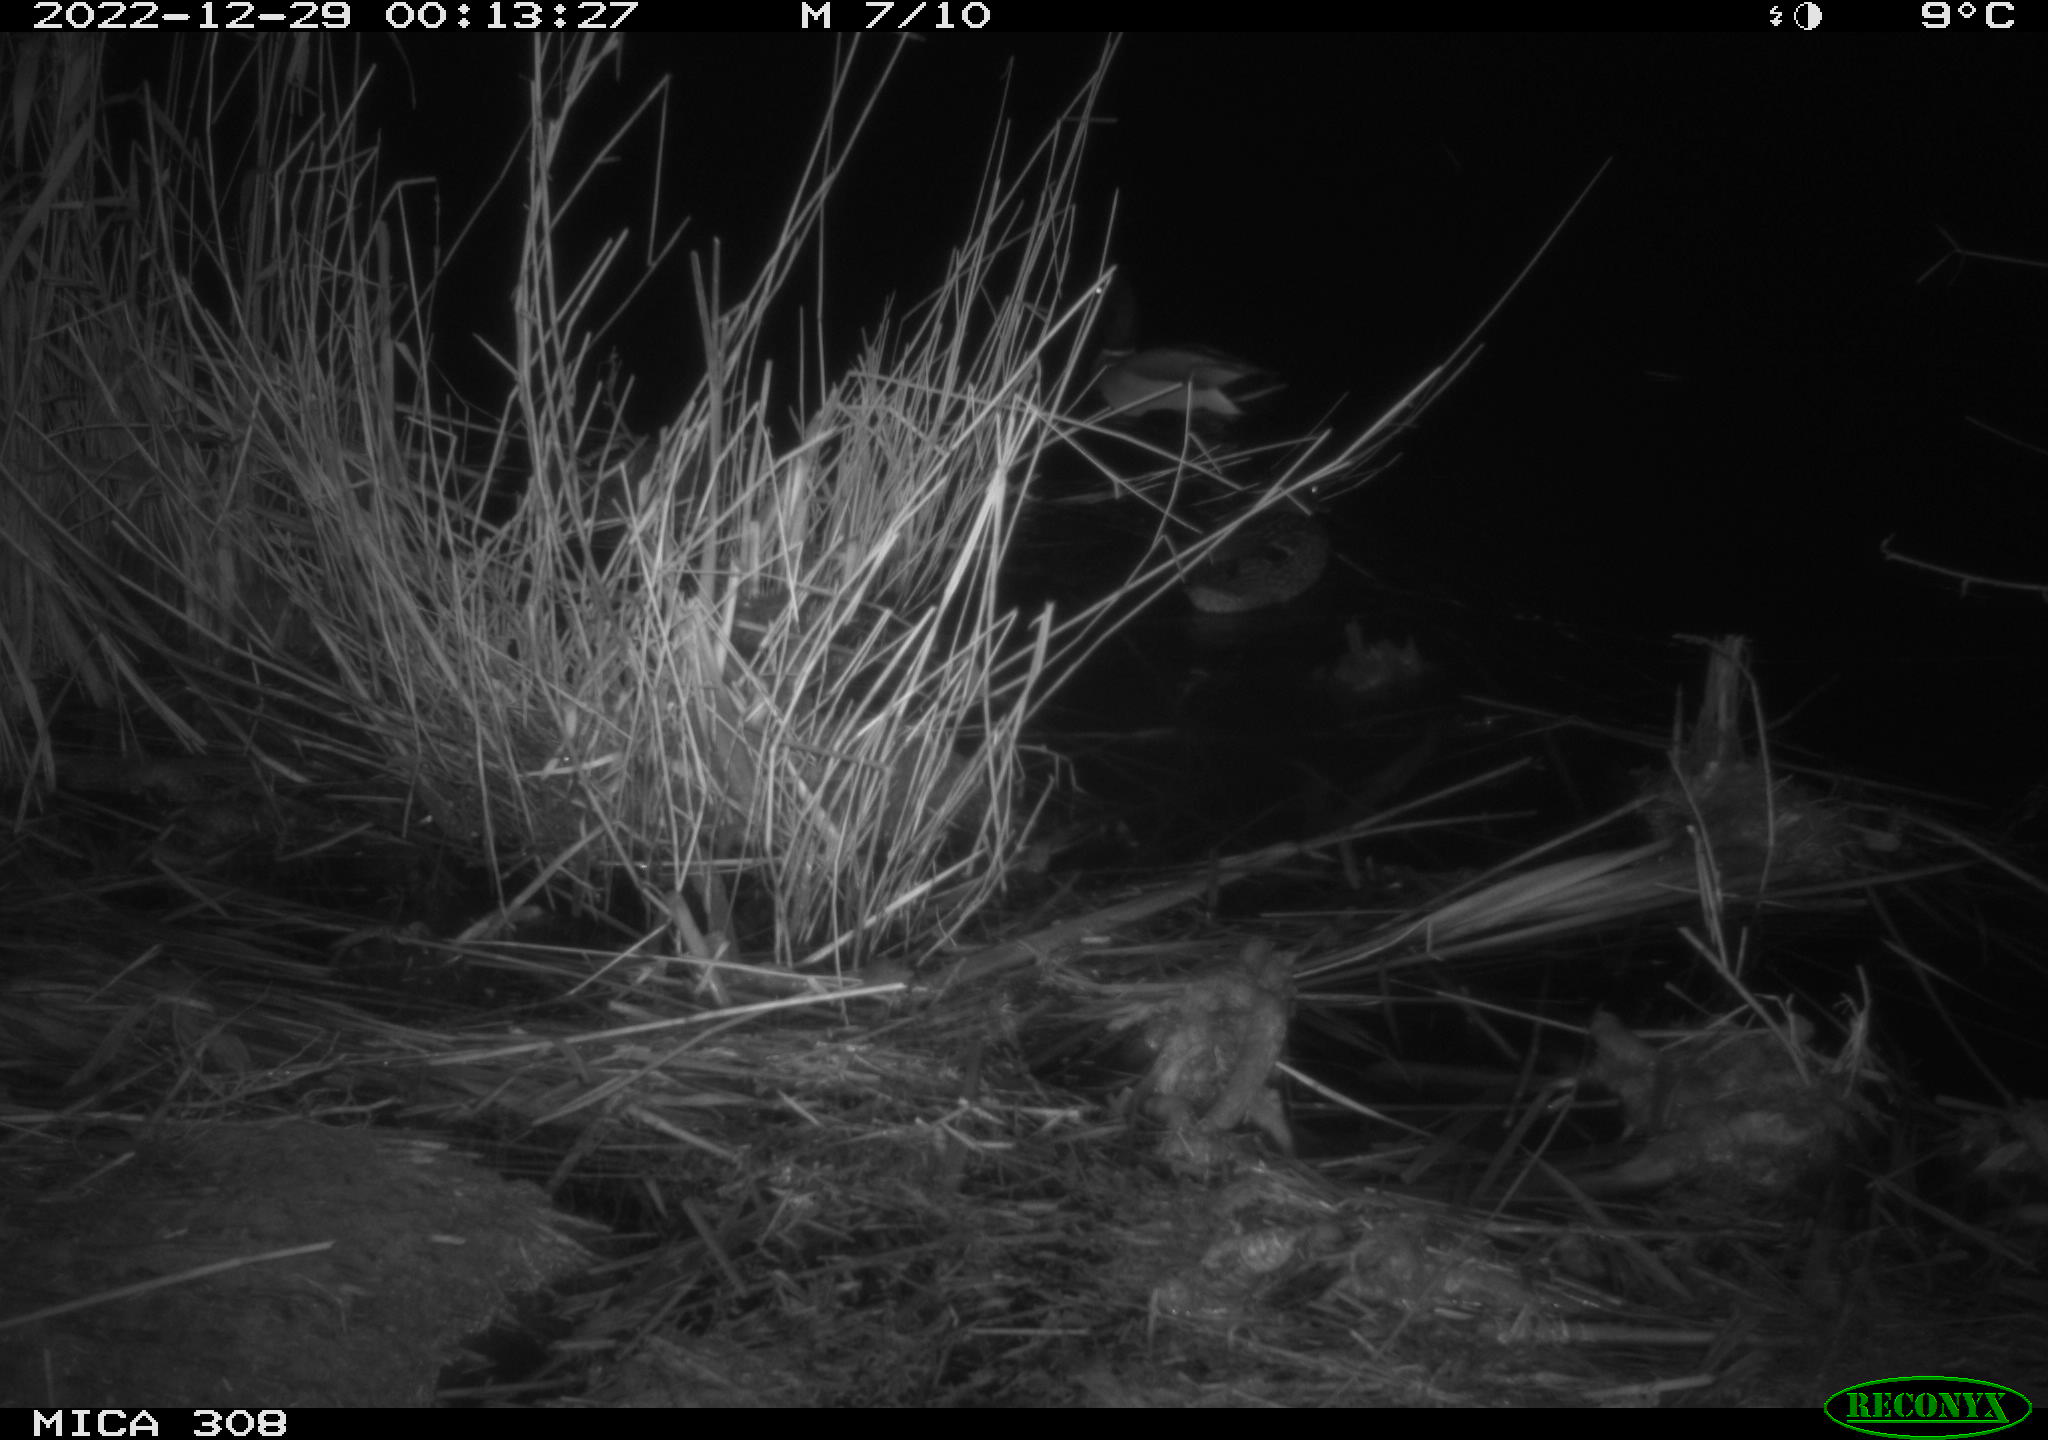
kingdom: Animalia
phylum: Chordata
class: Aves
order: Anseriformes
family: Anatidae
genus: Anas
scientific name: Anas
